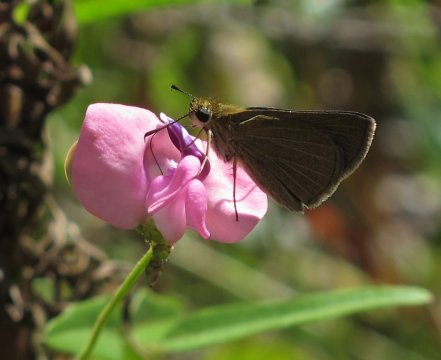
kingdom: Animalia
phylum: Arthropoda
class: Insecta
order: Lepidoptera
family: Hesperiidae
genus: Nastra
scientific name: Nastra lherminier
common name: Swarthy Skipper
